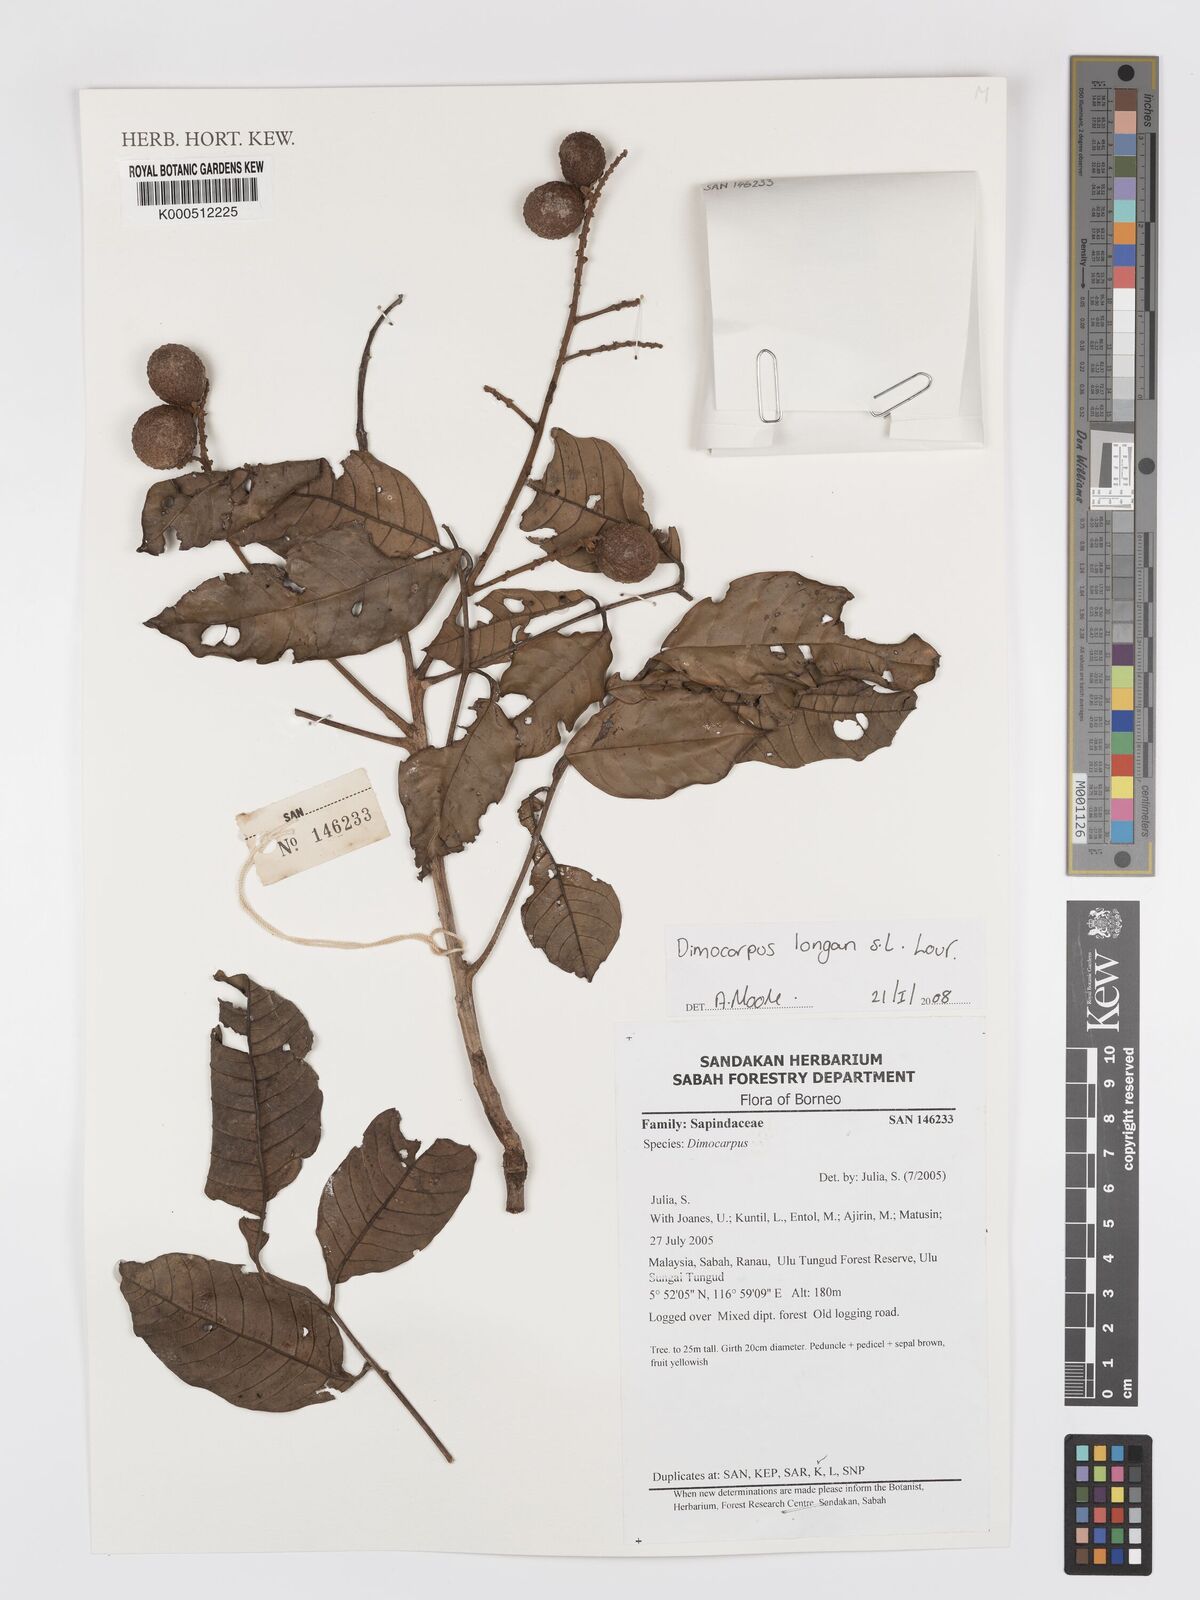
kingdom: Plantae
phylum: Tracheophyta
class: Magnoliopsida
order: Sapindales
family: Sapindaceae
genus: Dimocarpus
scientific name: Dimocarpus longan
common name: Longan
